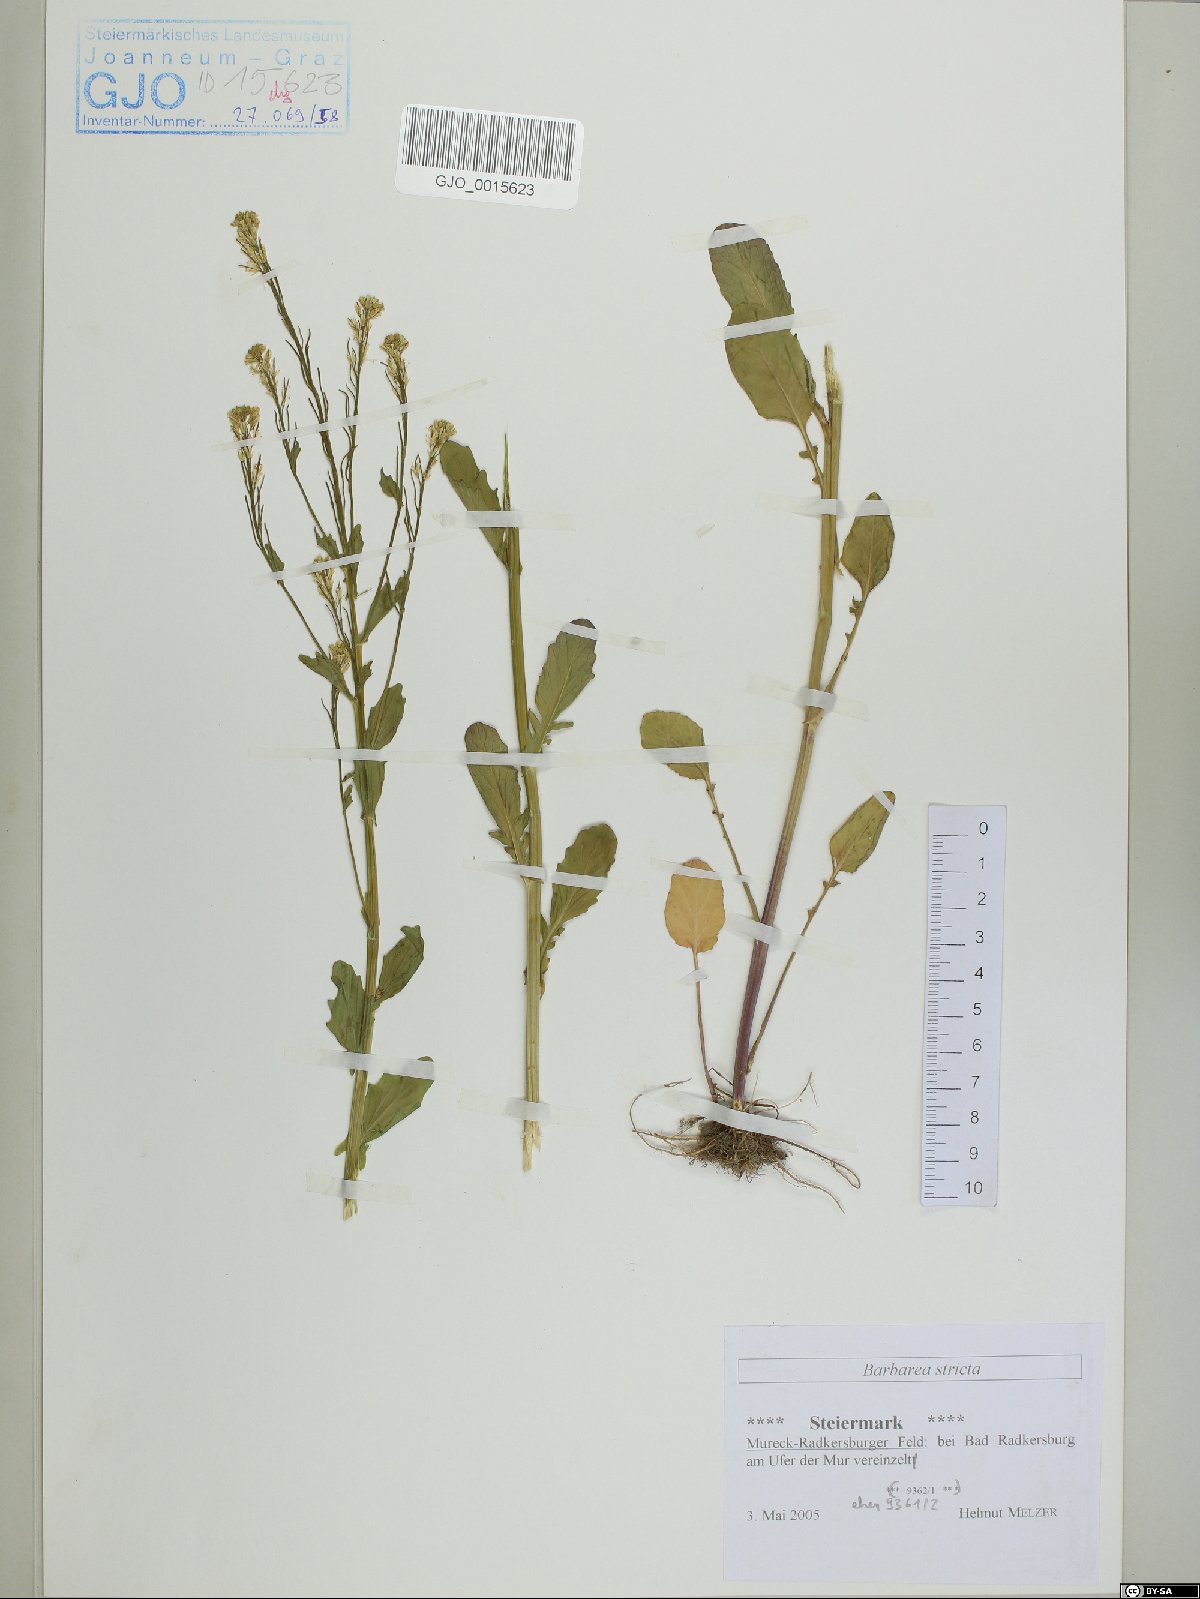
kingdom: Plantae
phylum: Tracheophyta
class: Magnoliopsida
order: Brassicales
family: Brassicaceae
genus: Barbarea
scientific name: Barbarea stricta
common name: Small-flowered winter-cress
